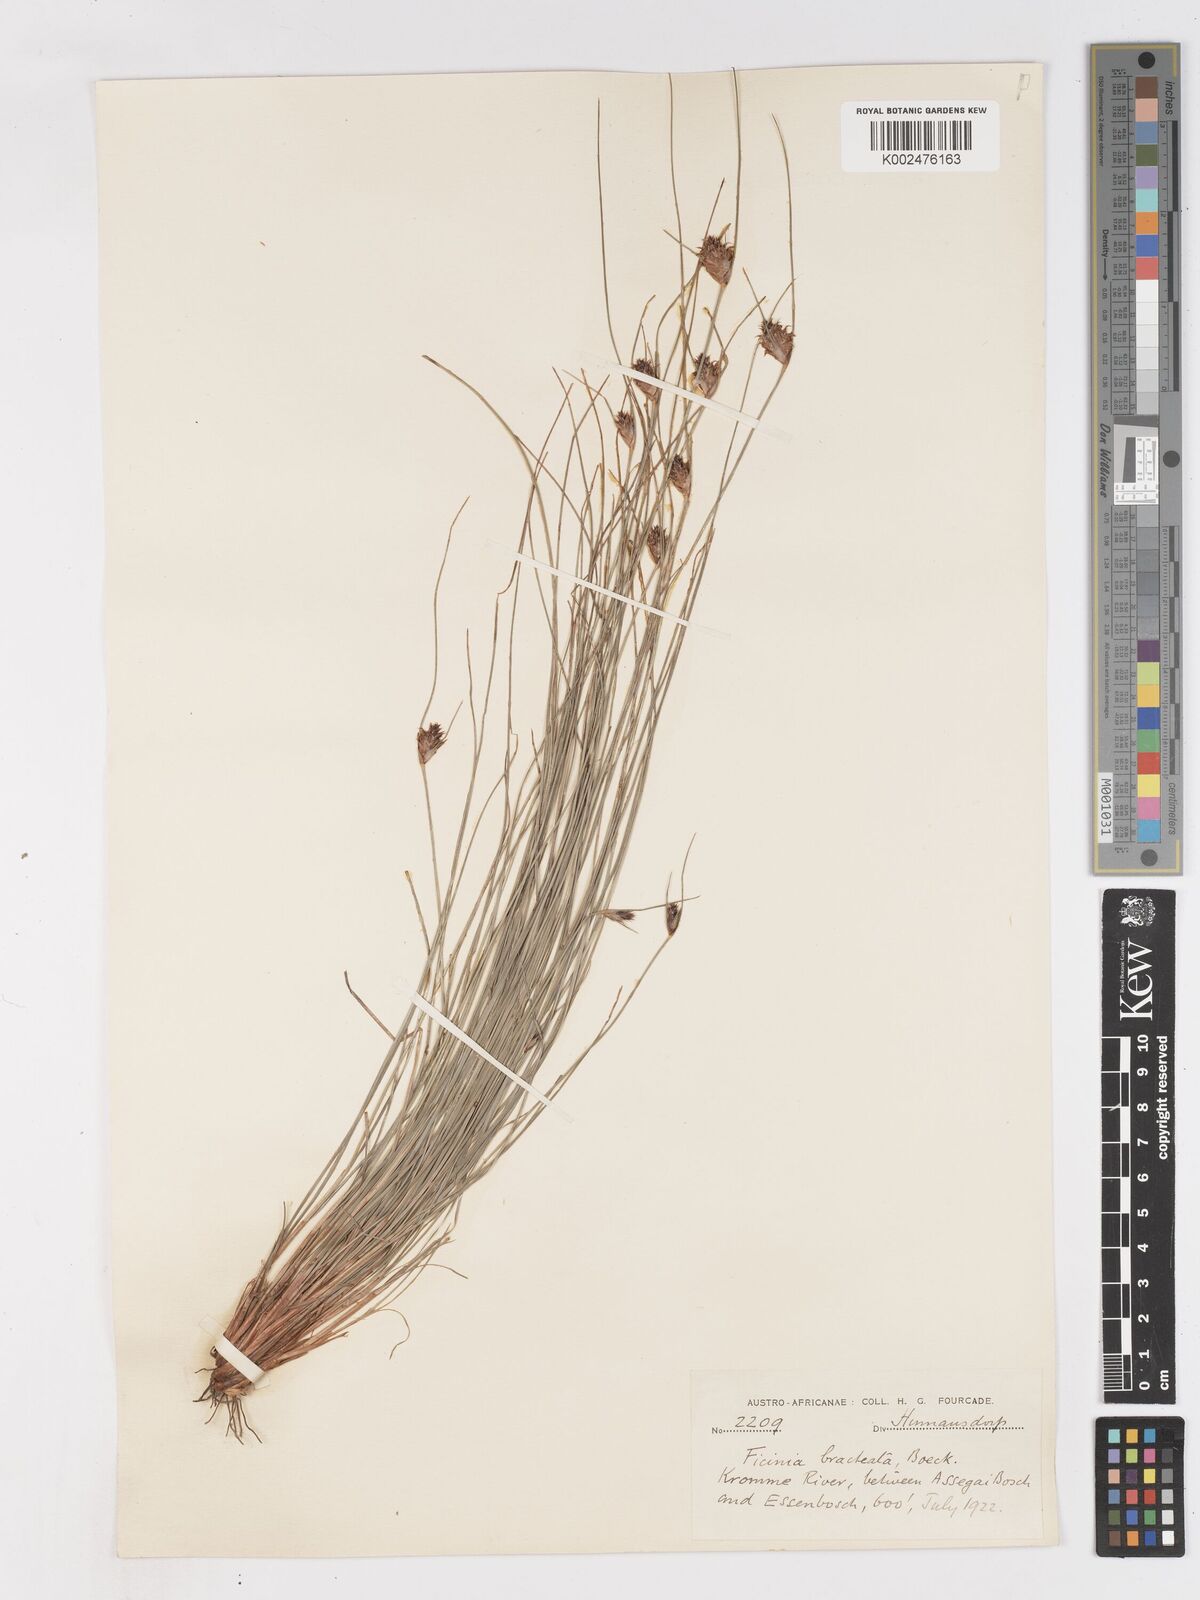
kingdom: Plantae
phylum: Tracheophyta
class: Liliopsida
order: Poales
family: Cyperaceae
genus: Ficinia
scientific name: Ficinia nigrescens
